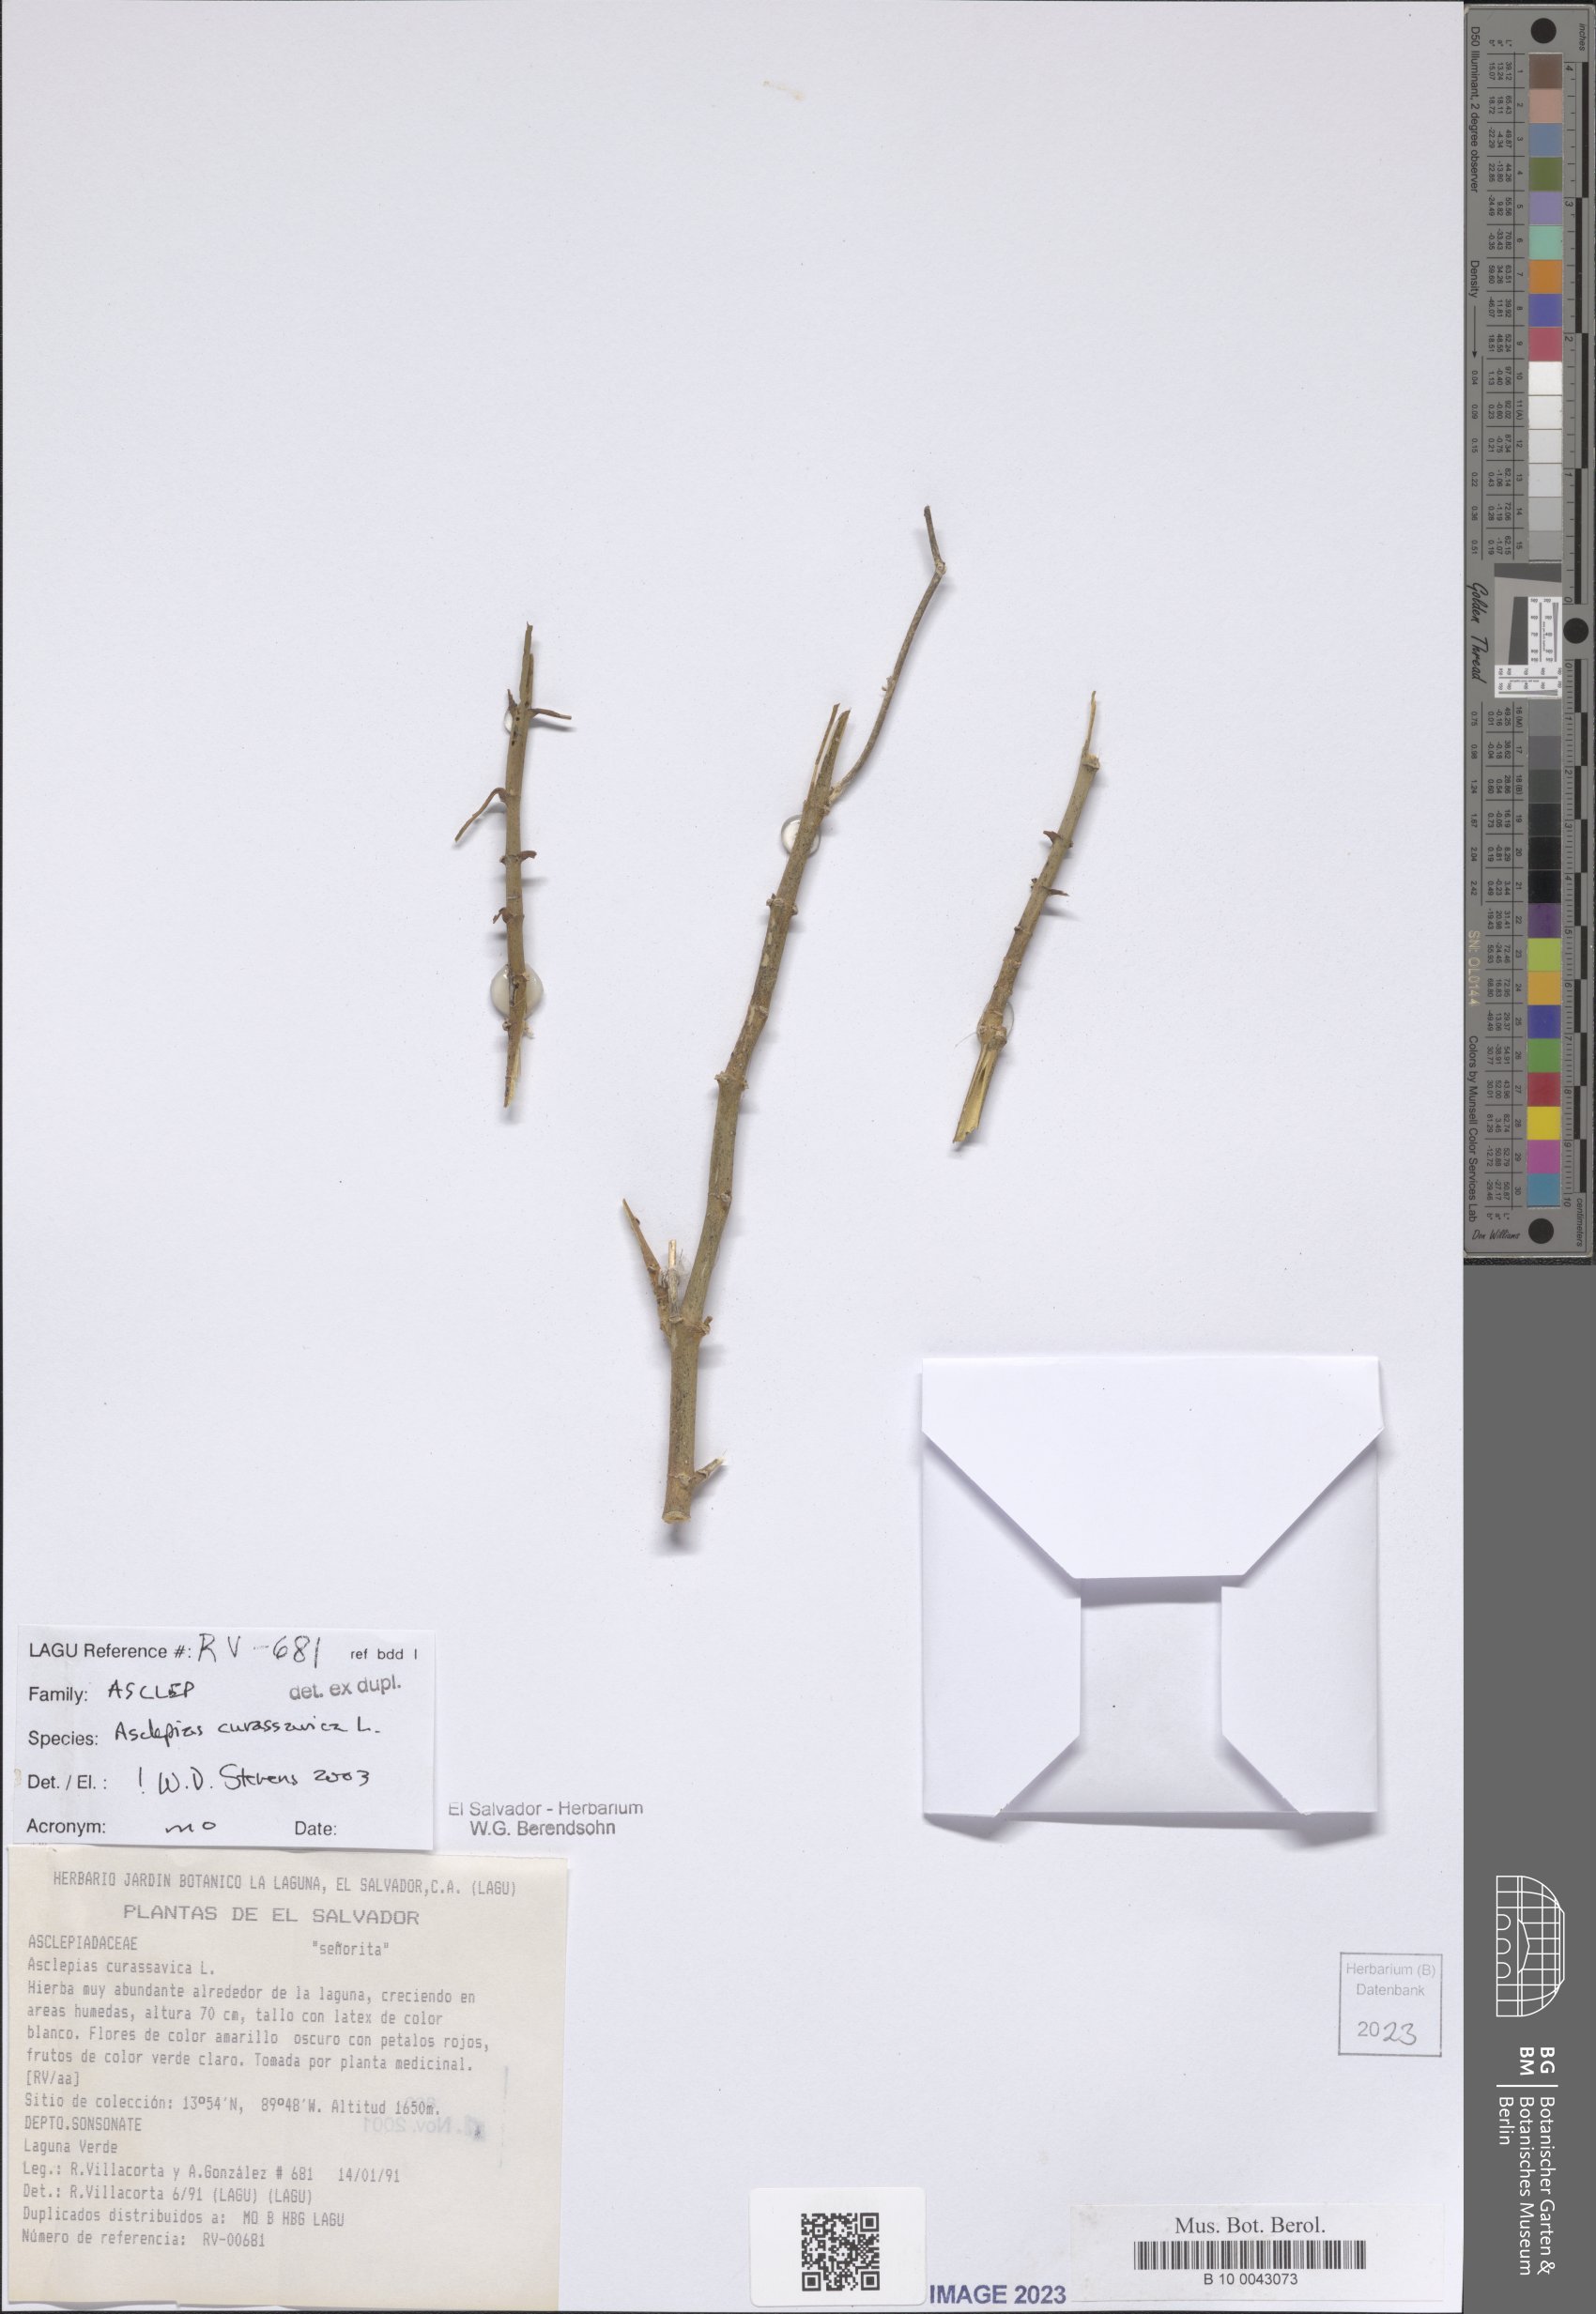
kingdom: Plantae
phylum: Tracheophyta
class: Magnoliopsida
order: Gentianales
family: Apocynaceae
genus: Asclepias
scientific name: Asclepias curassavica
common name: Bloodflower
